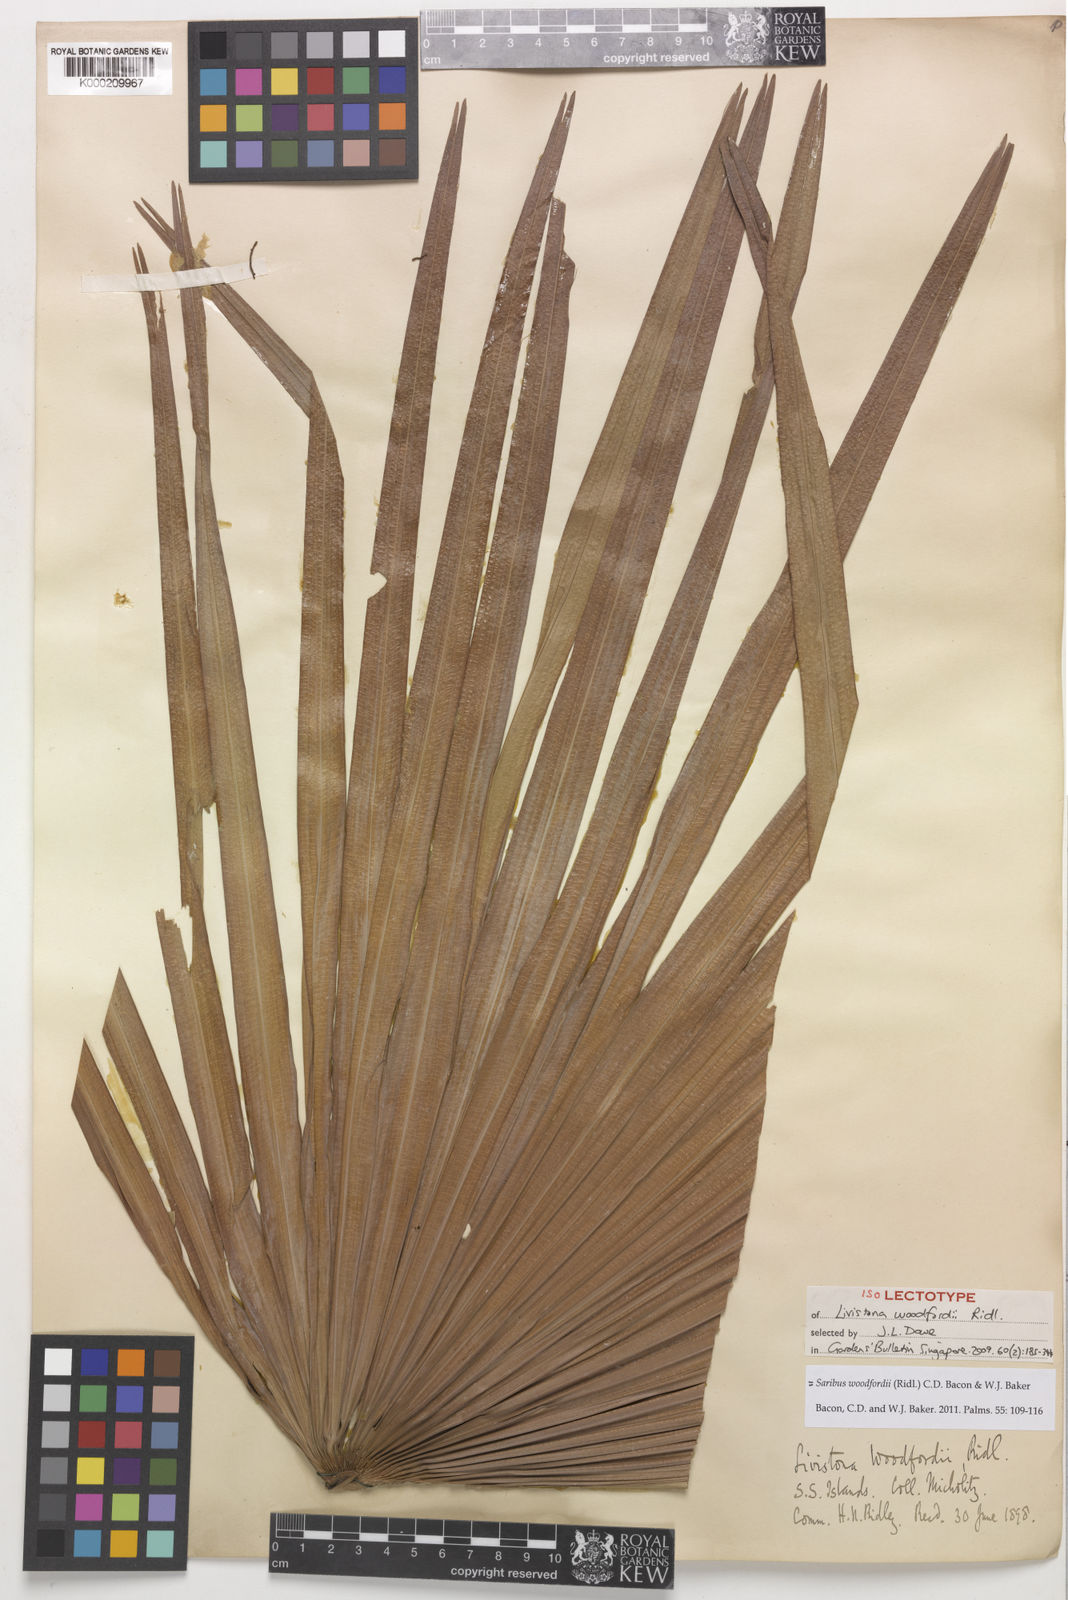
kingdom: Plantae
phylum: Tracheophyta
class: Liliopsida
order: Arecales
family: Arecaceae
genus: Saribus
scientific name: Saribus woodfordii
